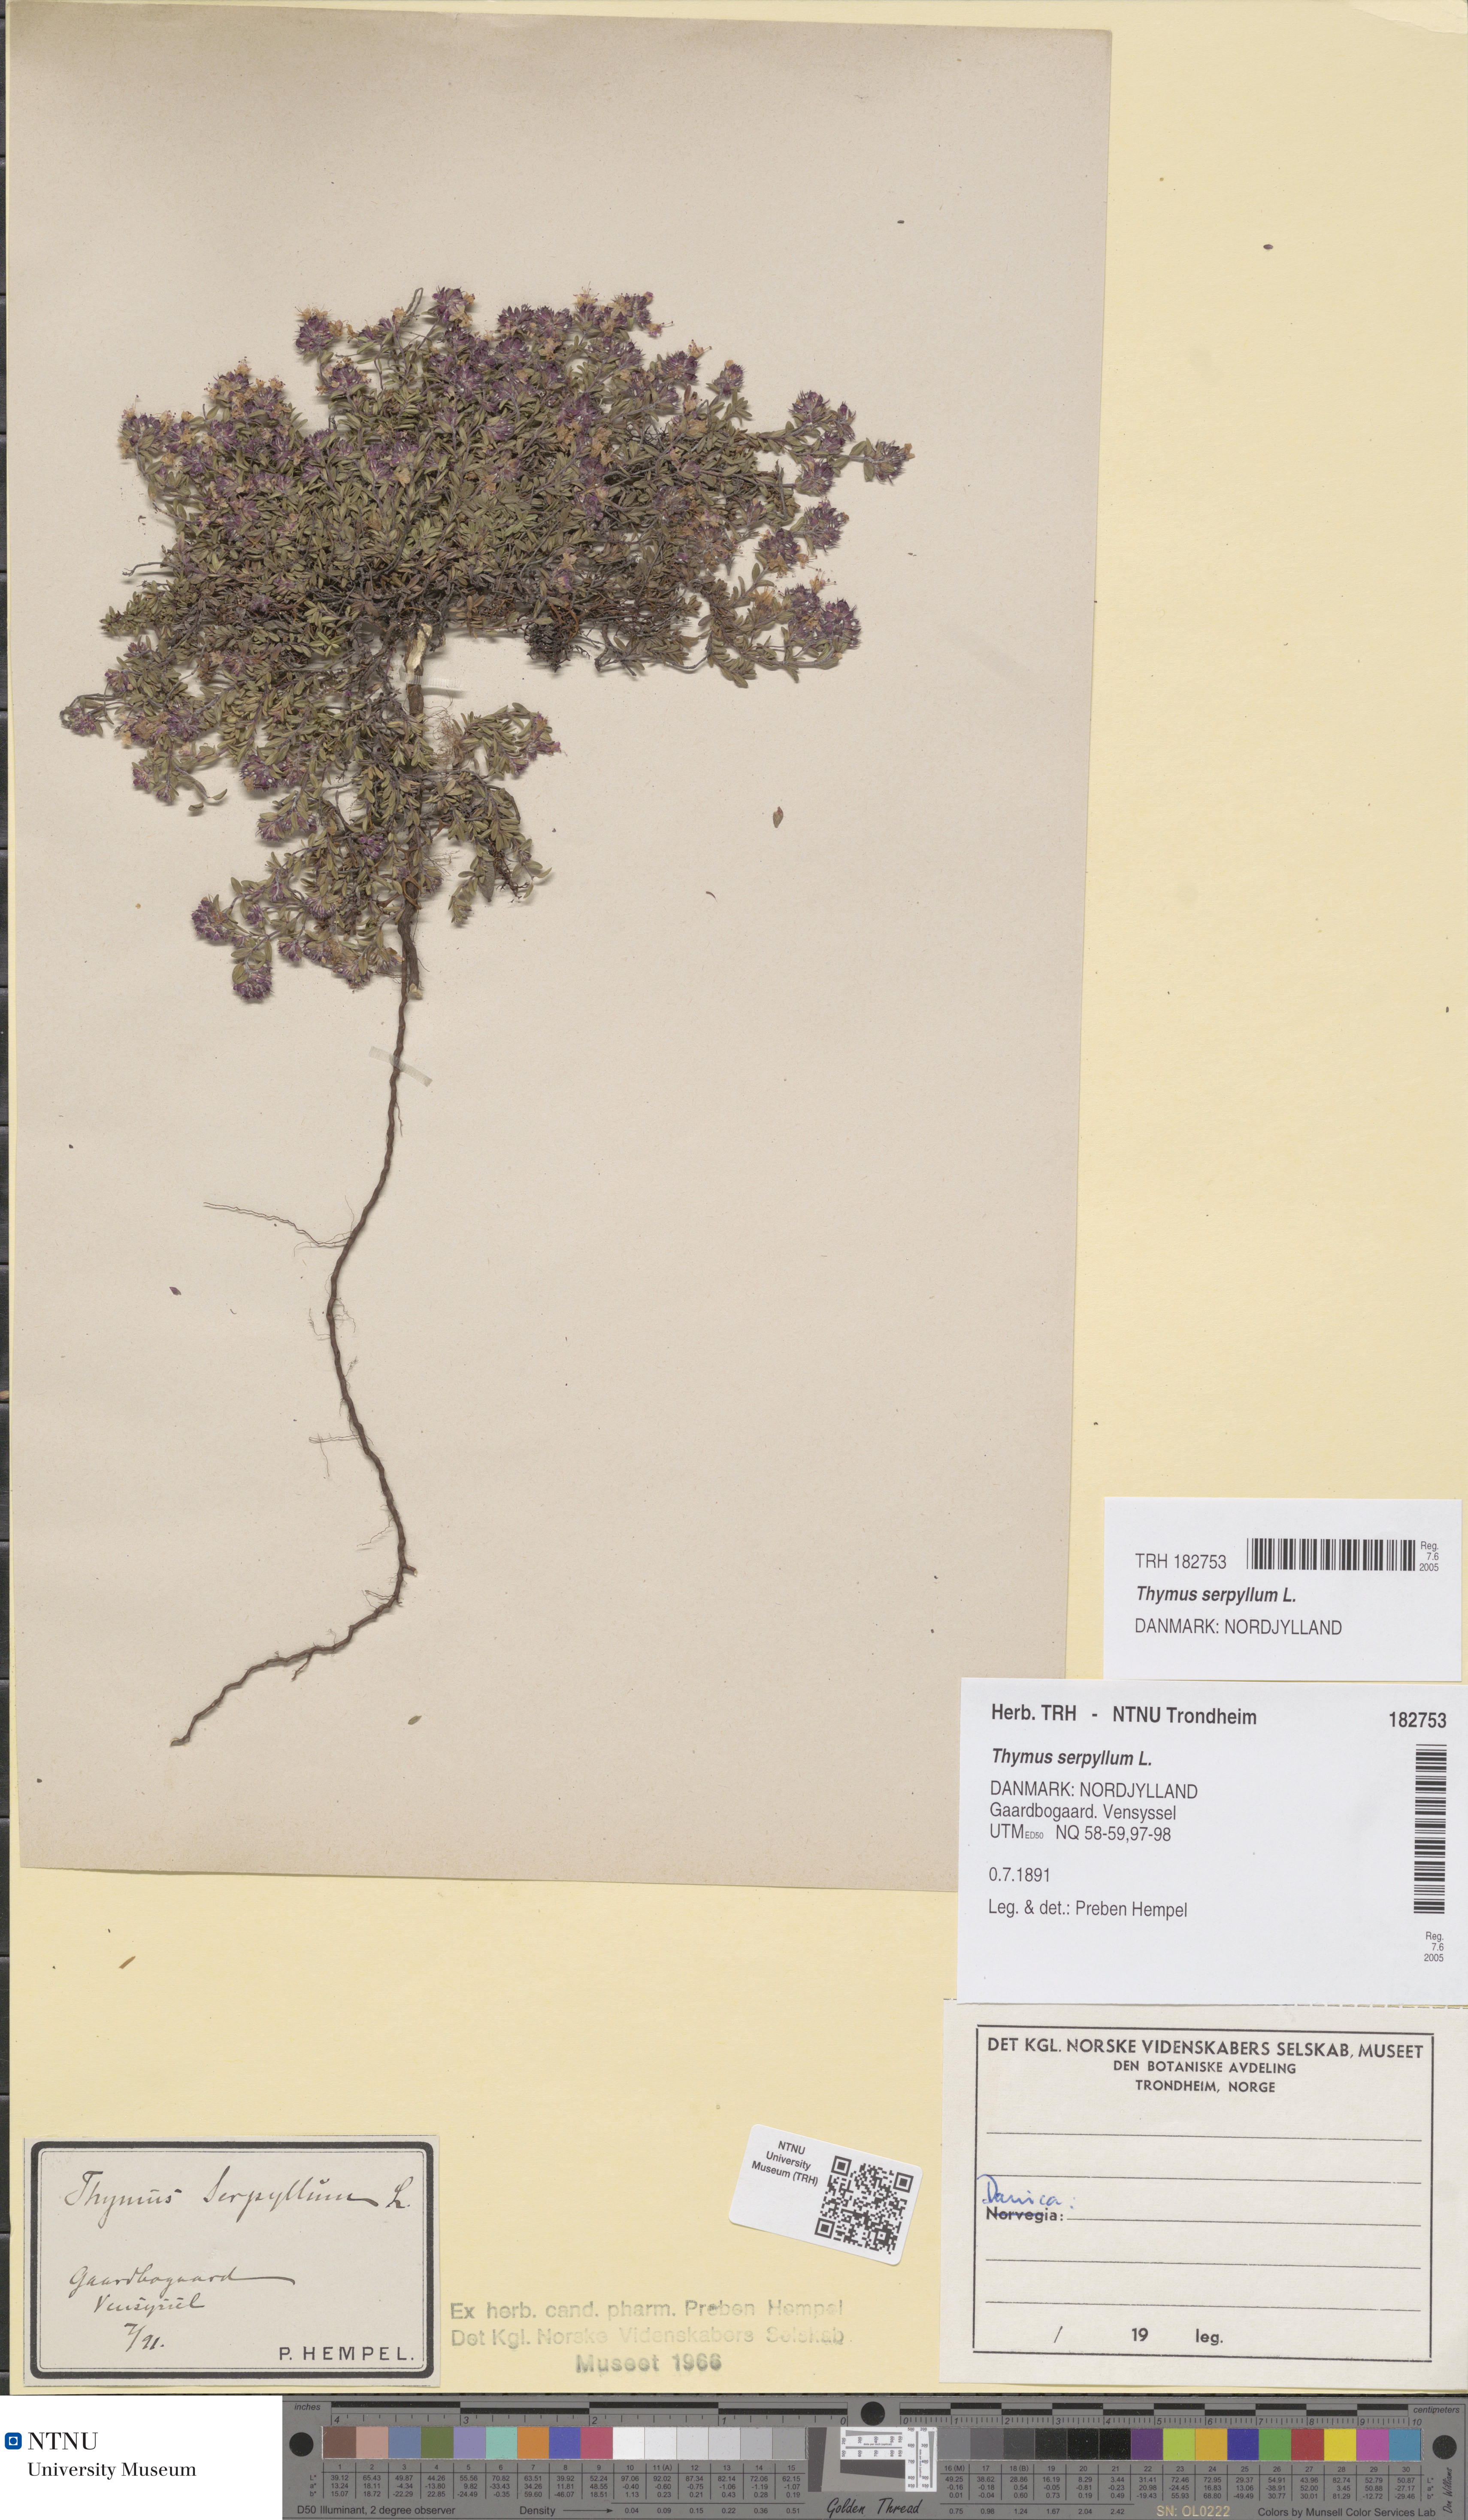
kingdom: Plantae
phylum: Tracheophyta
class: Magnoliopsida
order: Lamiales
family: Lamiaceae
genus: Thymus
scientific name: Thymus serpyllum
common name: Breckland thyme
